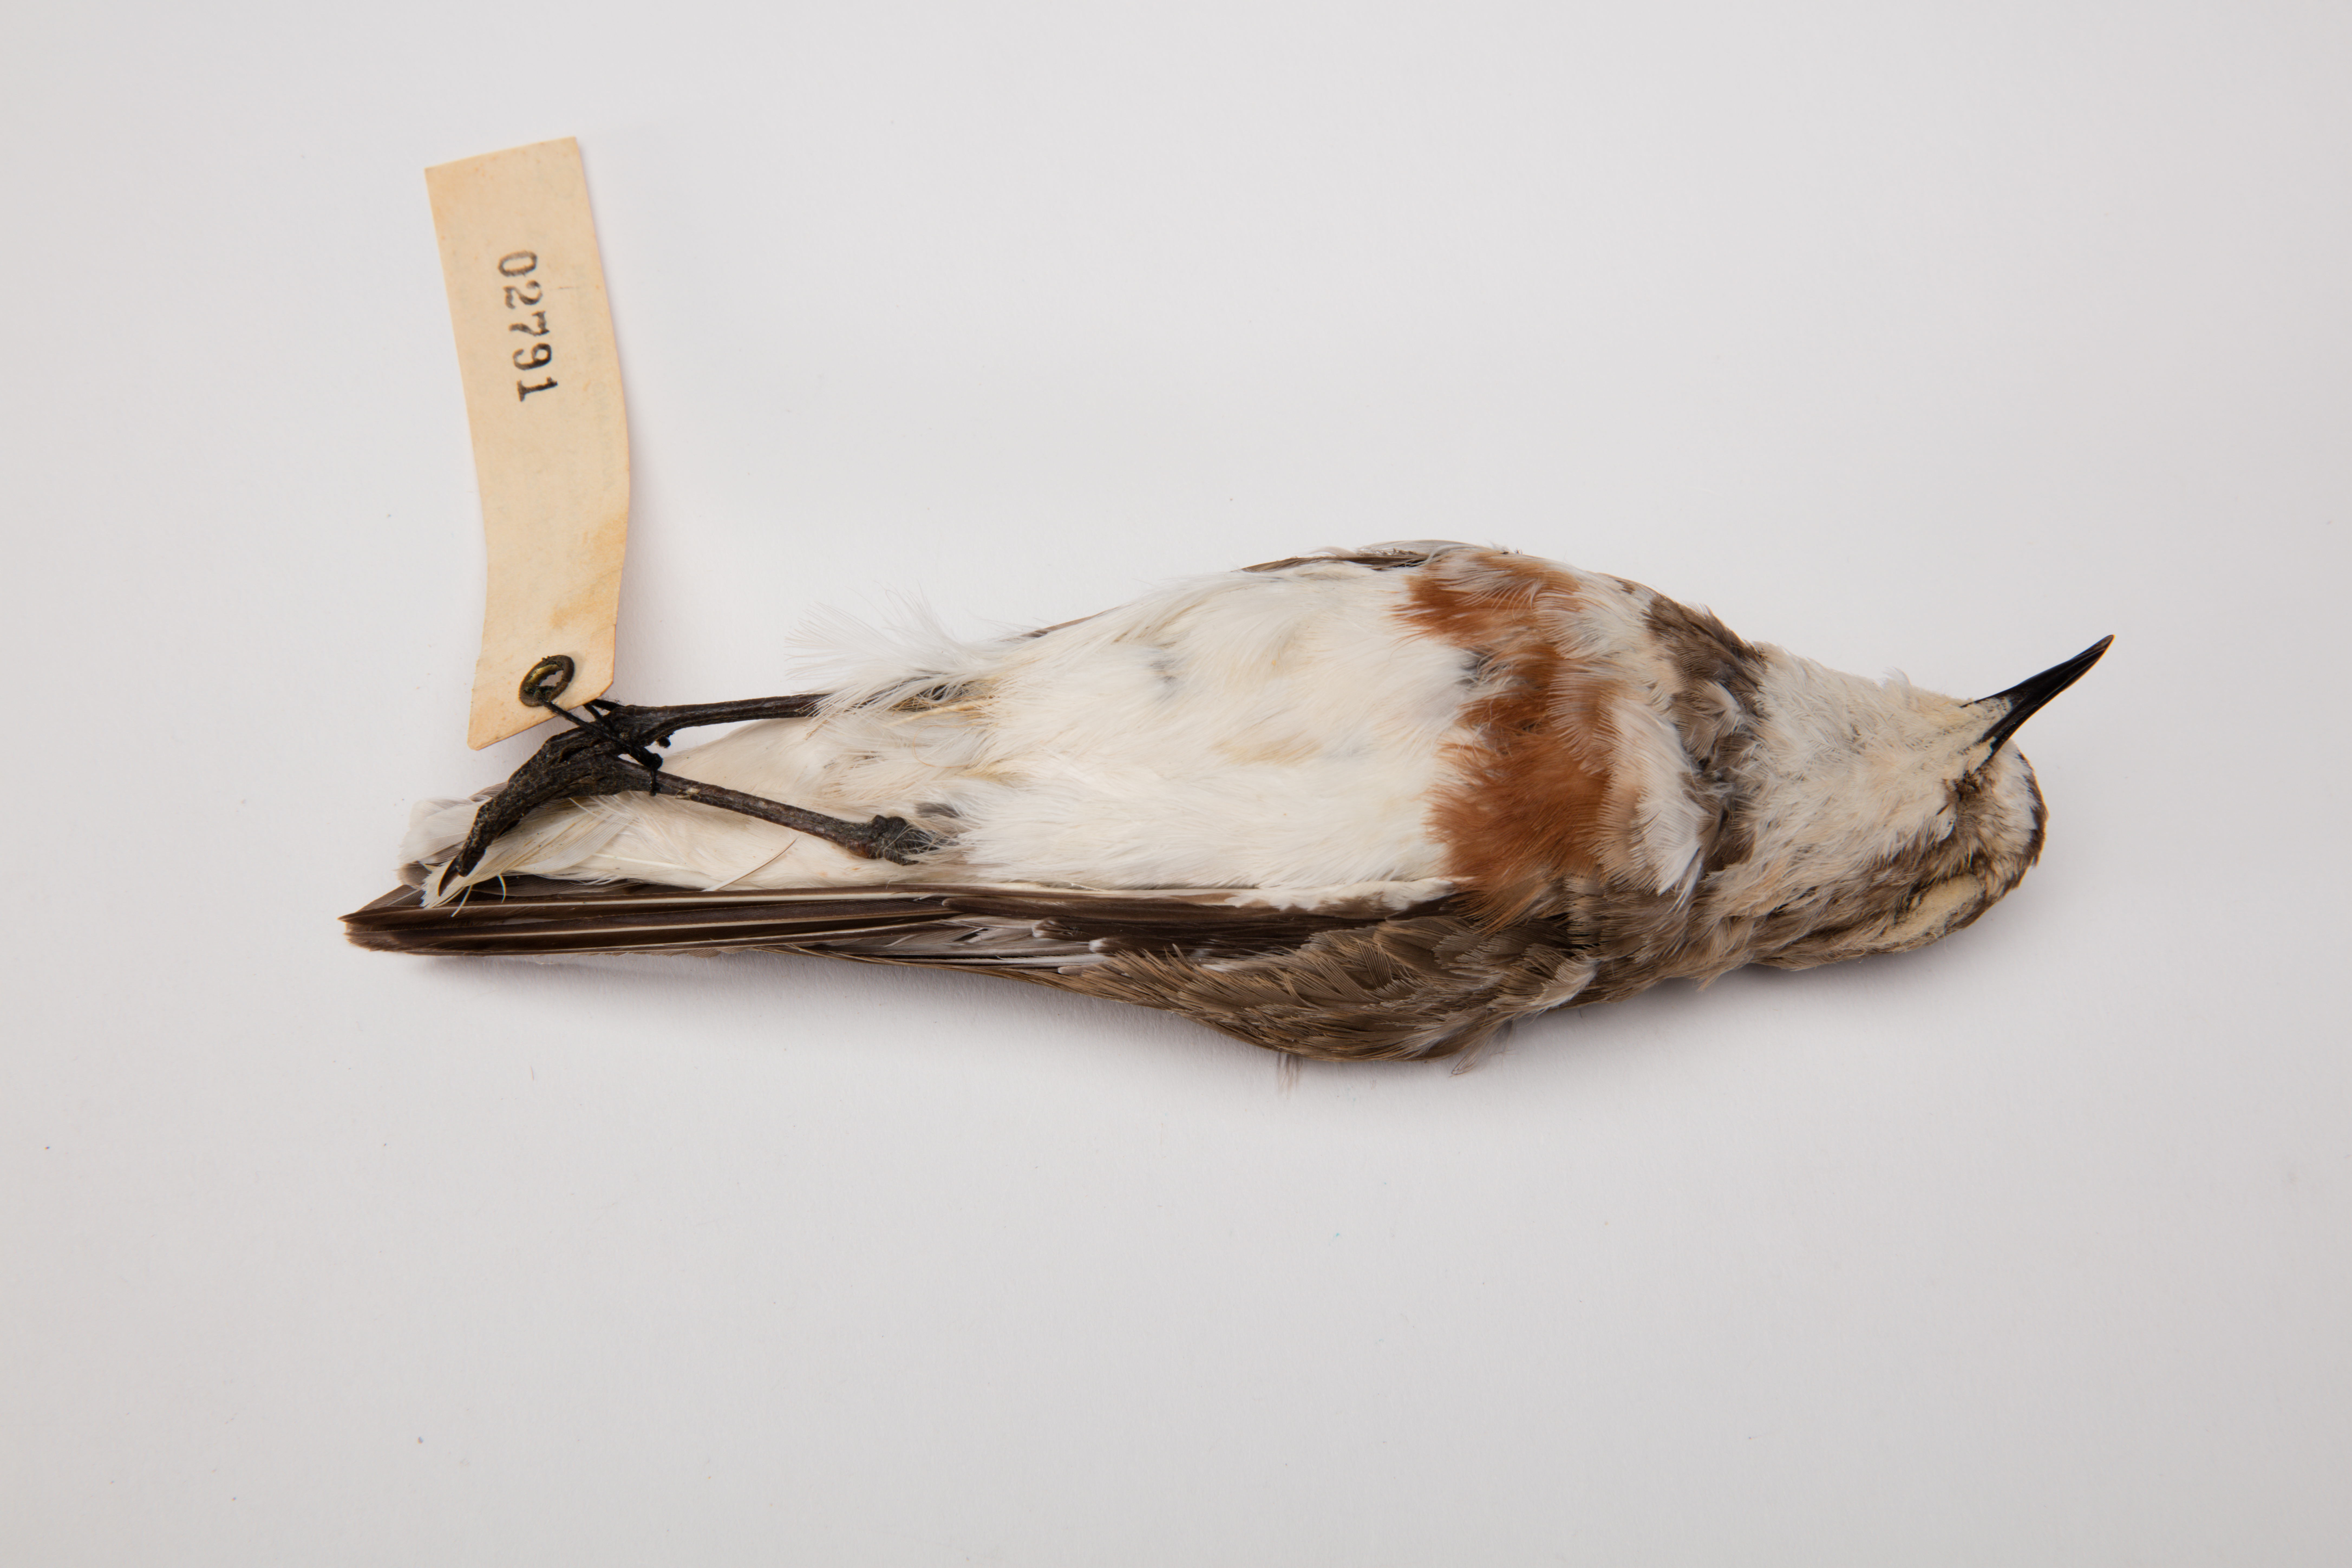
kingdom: Animalia
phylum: Chordata
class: Aves
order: Charadriiformes
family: Charadriidae
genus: Charadrius
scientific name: Charadrius bicinctus
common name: Double-banded plover
